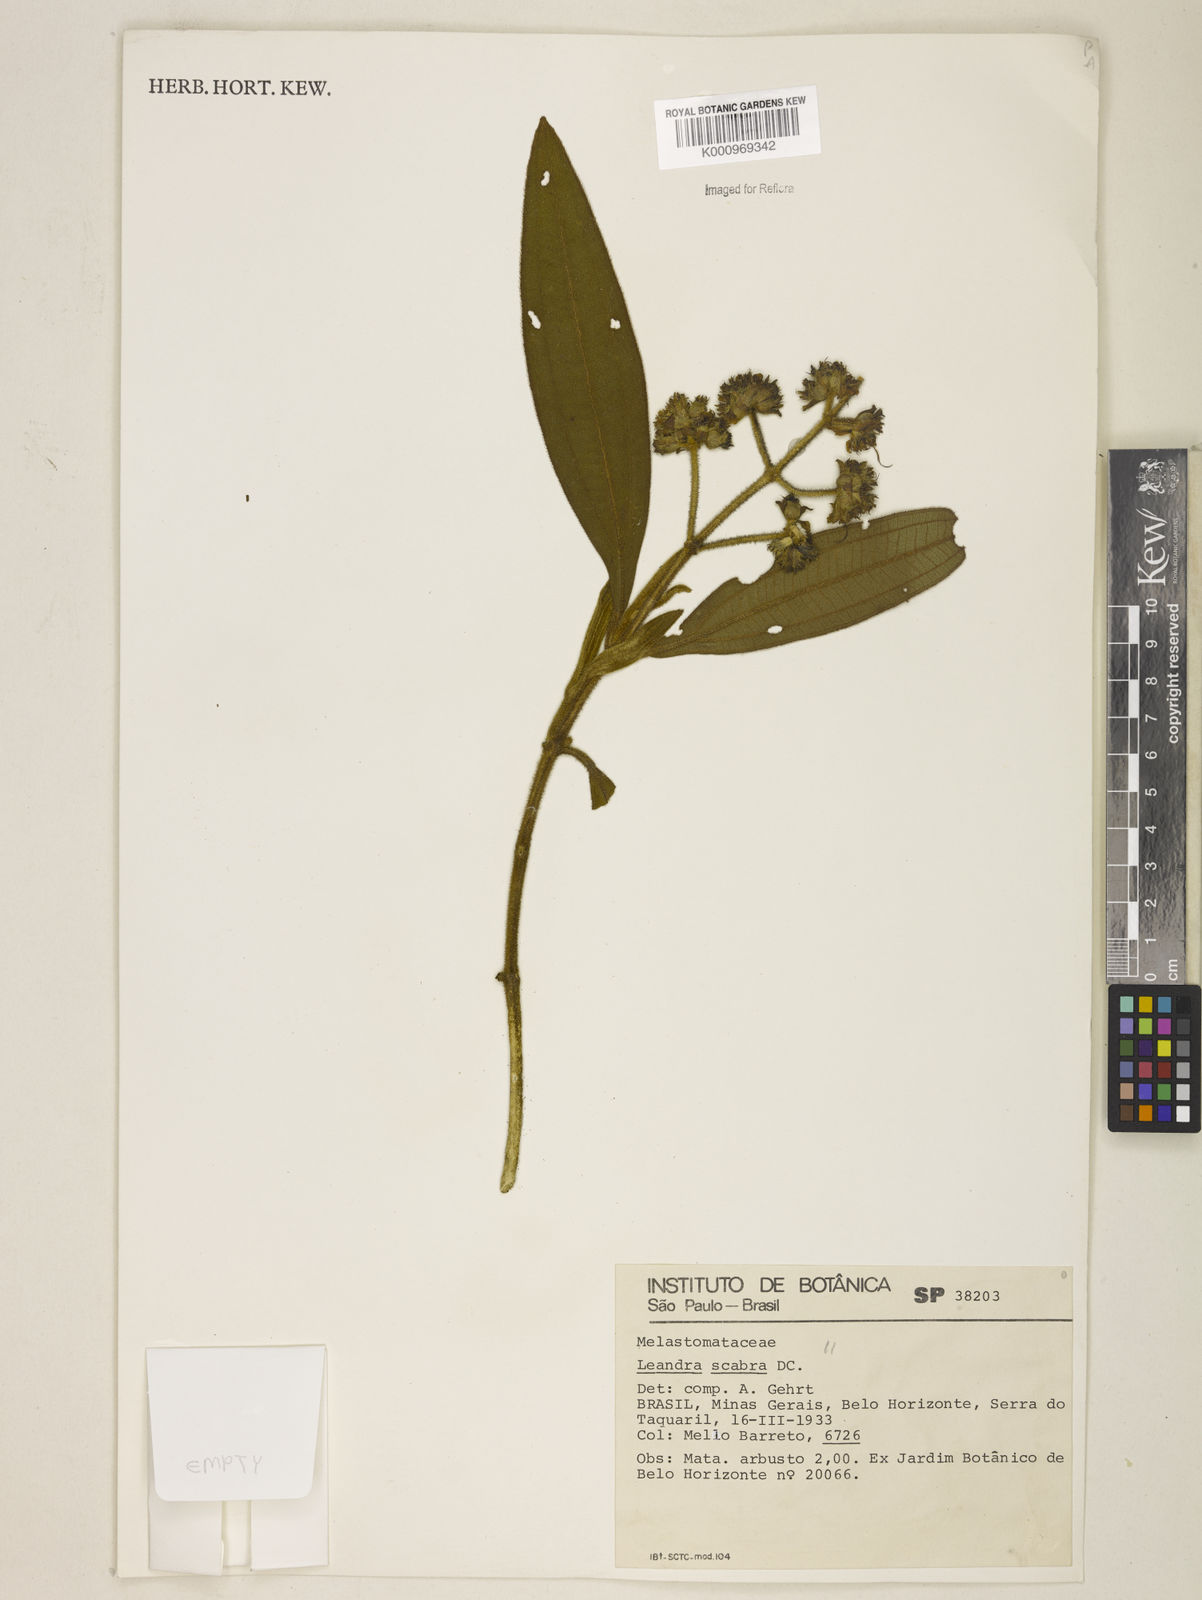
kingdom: Plantae
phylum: Tracheophyta
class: Magnoliopsida
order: Myrtales
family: Melastomataceae
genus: Miconia
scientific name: Miconia melastomoides
